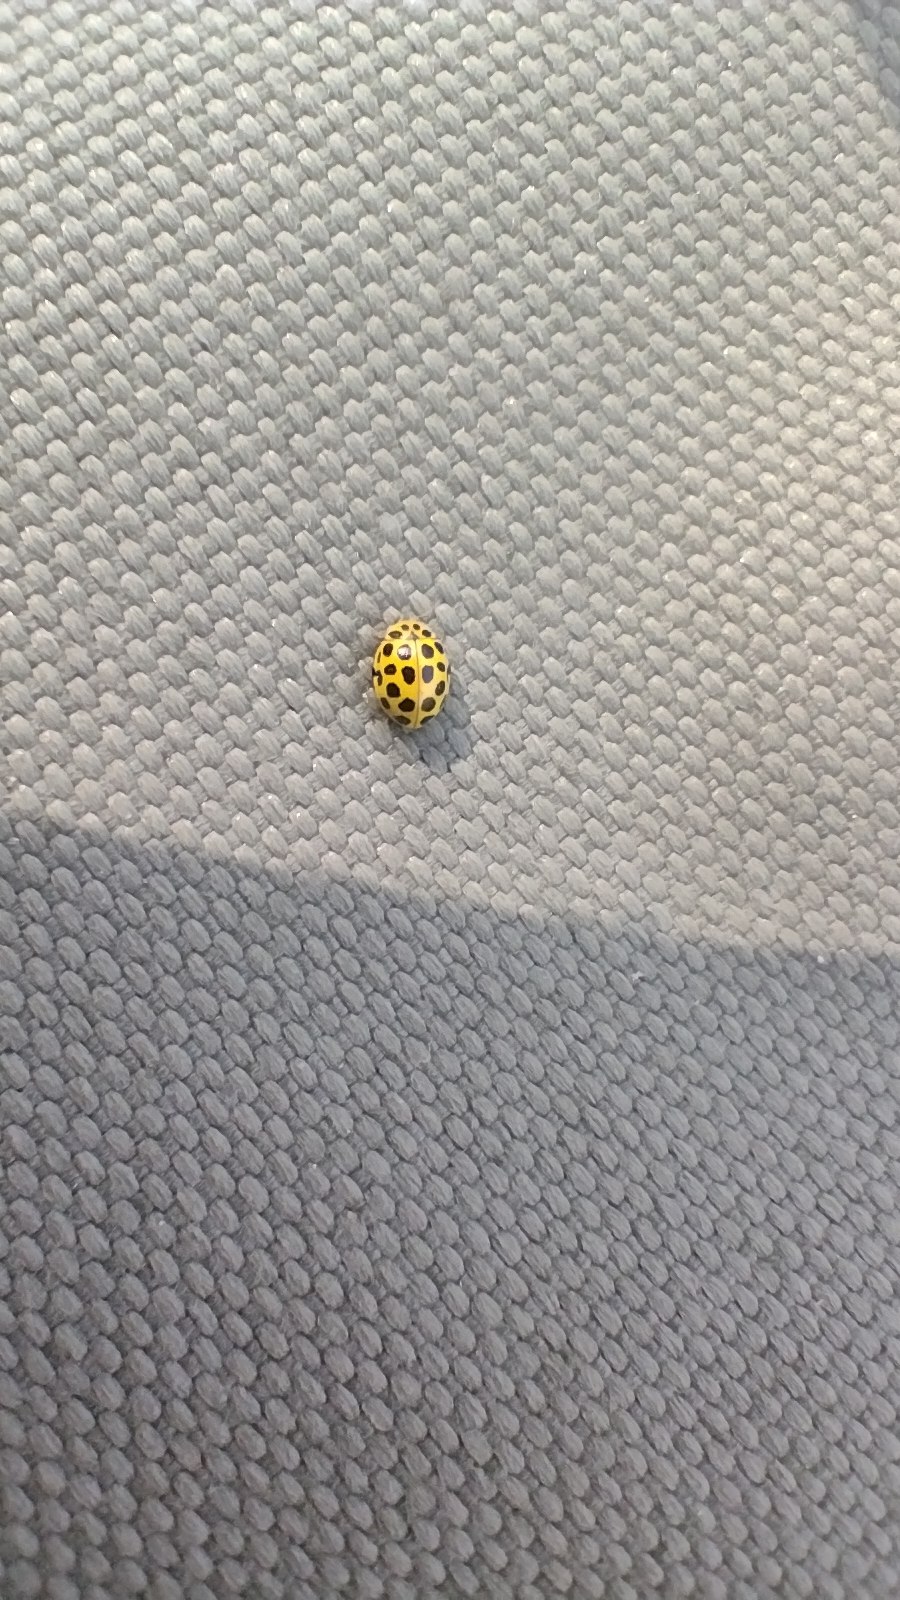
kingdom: Animalia
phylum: Arthropoda
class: Insecta
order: Coleoptera
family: Coccinellidae
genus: Psyllobora
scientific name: Psyllobora vigintiduopunctata
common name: Toogtyveplettet mariehøne
